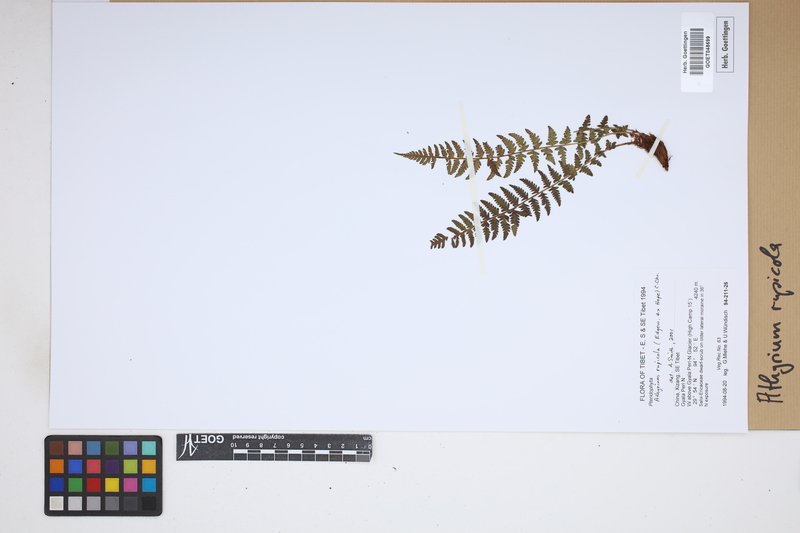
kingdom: Plantae
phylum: Tracheophyta
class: Polypodiopsida
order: Polypodiales
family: Athyriaceae
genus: Athyrium
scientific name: Athyrium rupicola
